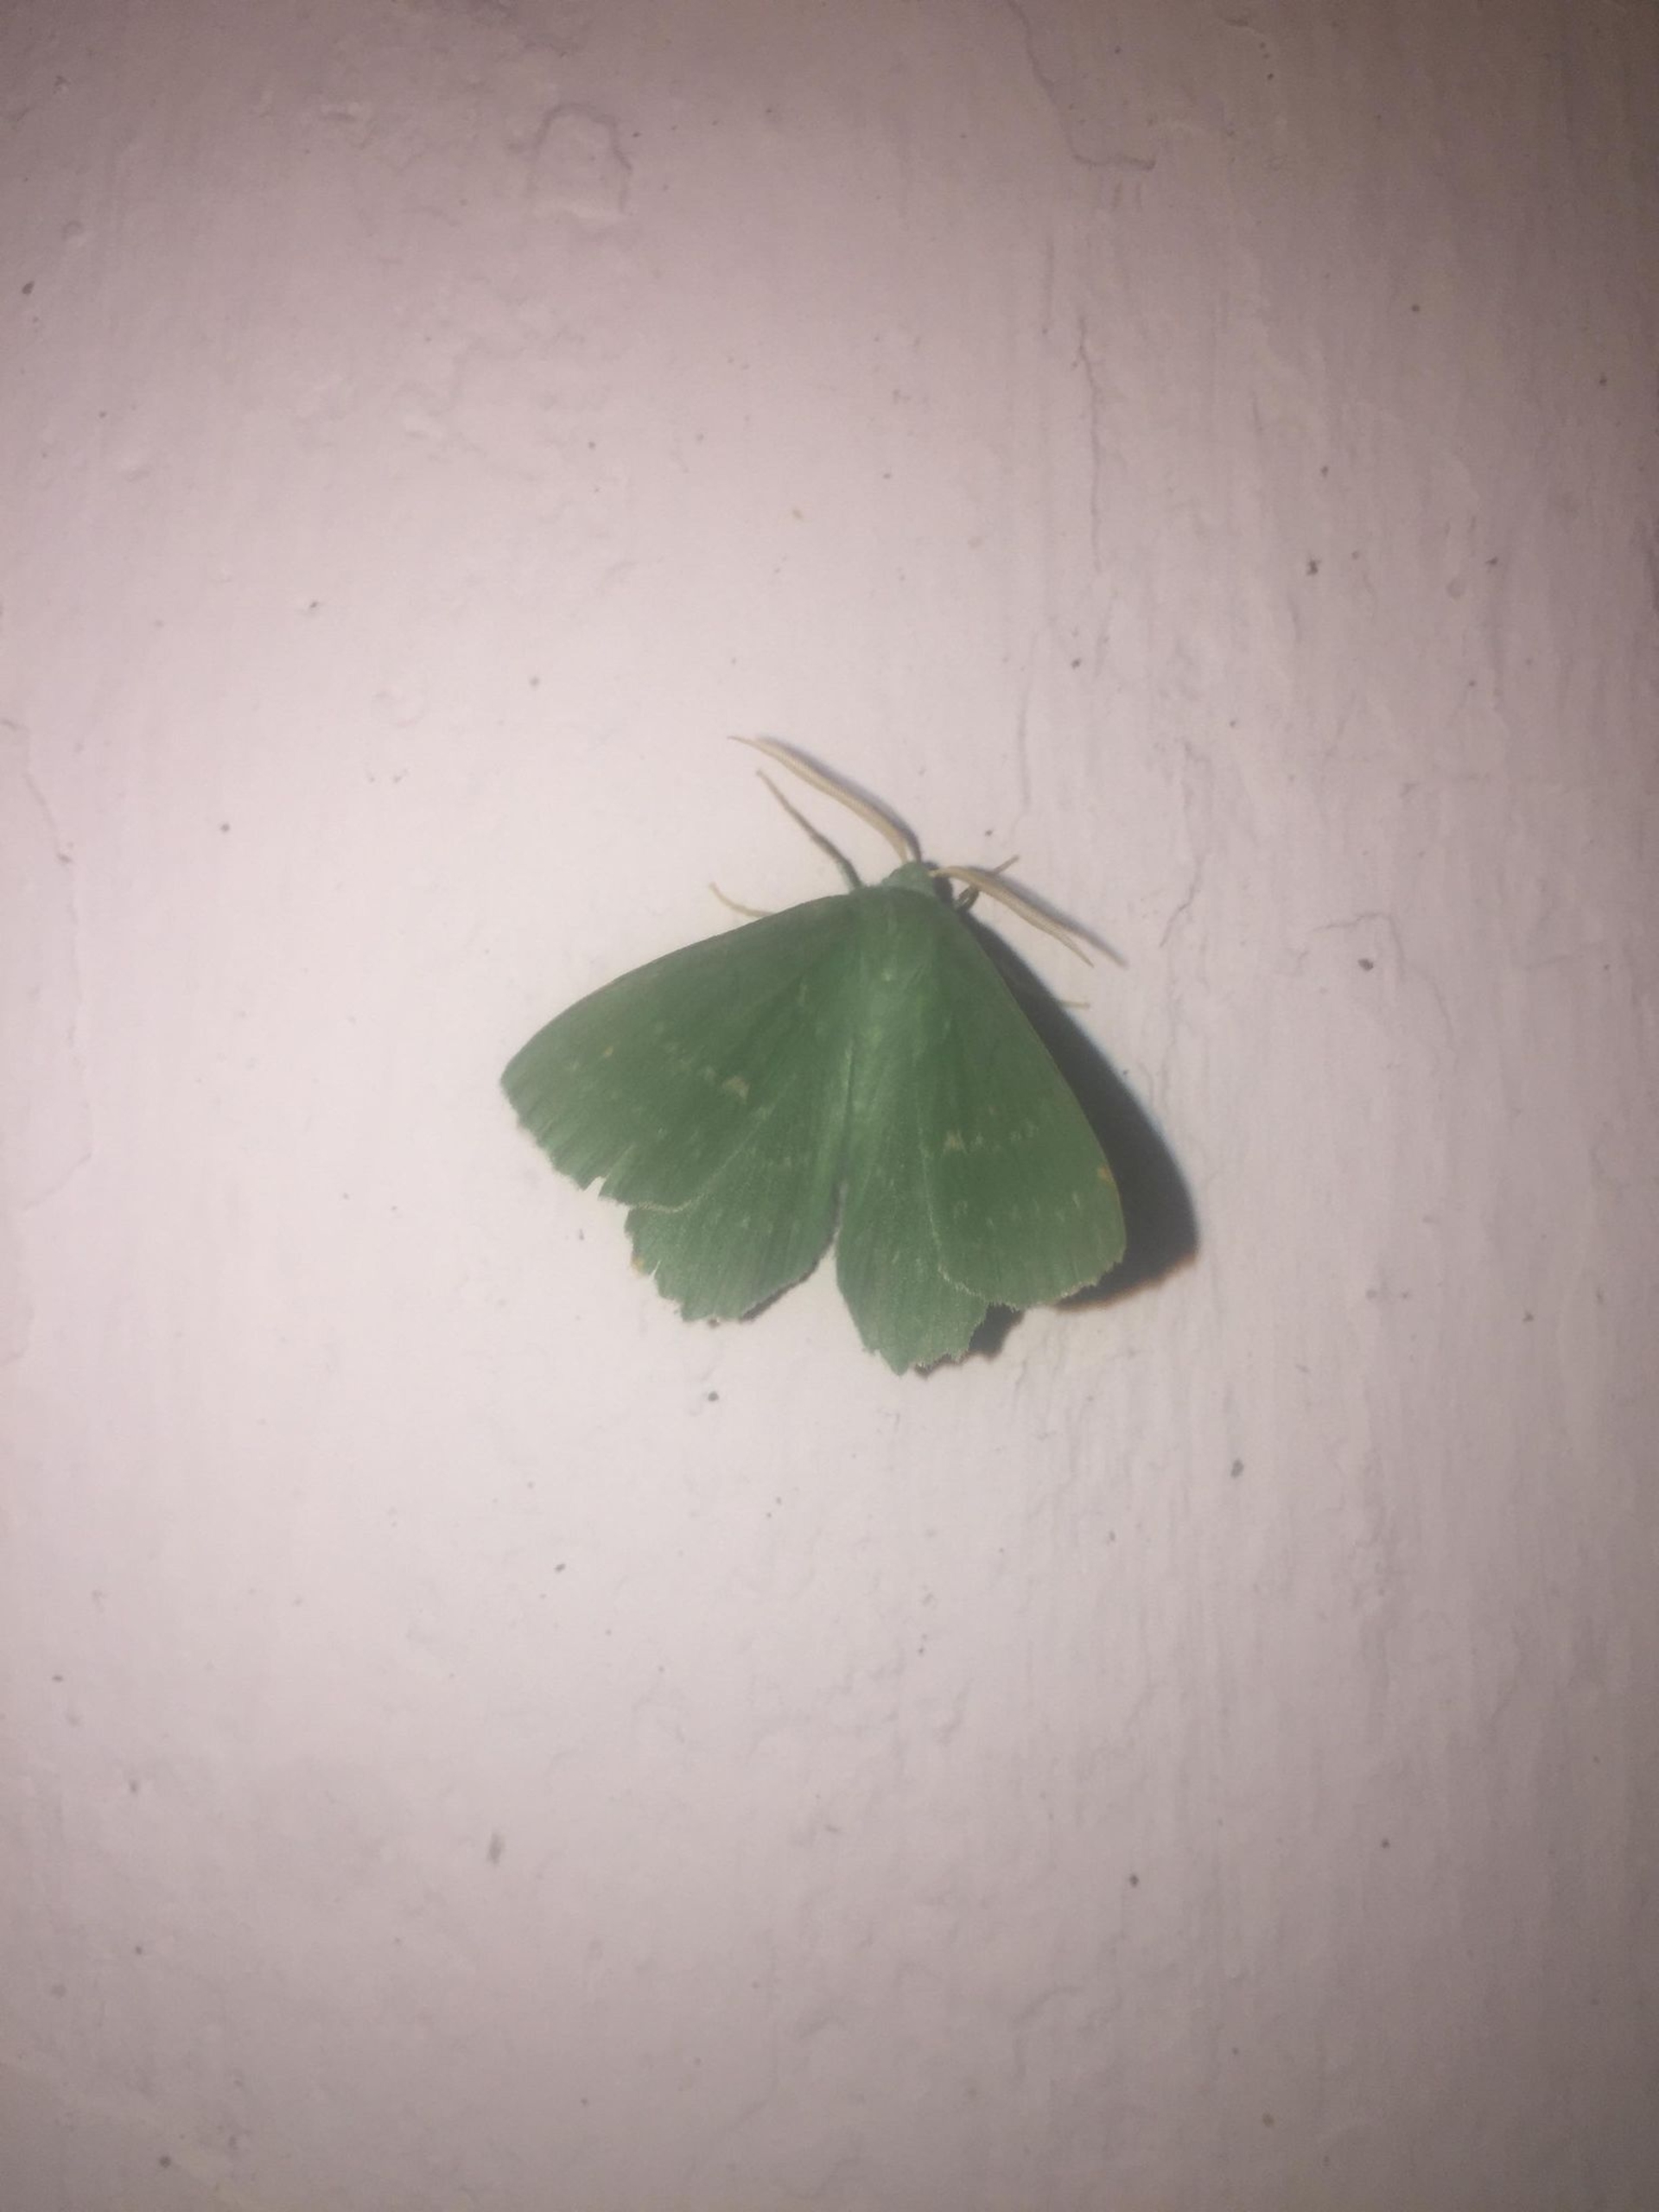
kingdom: Animalia
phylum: Arthropoda
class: Insecta
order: Lepidoptera
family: Geometridae
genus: Geometra
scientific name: Geometra papilionaria
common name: Grøn birkemåler
